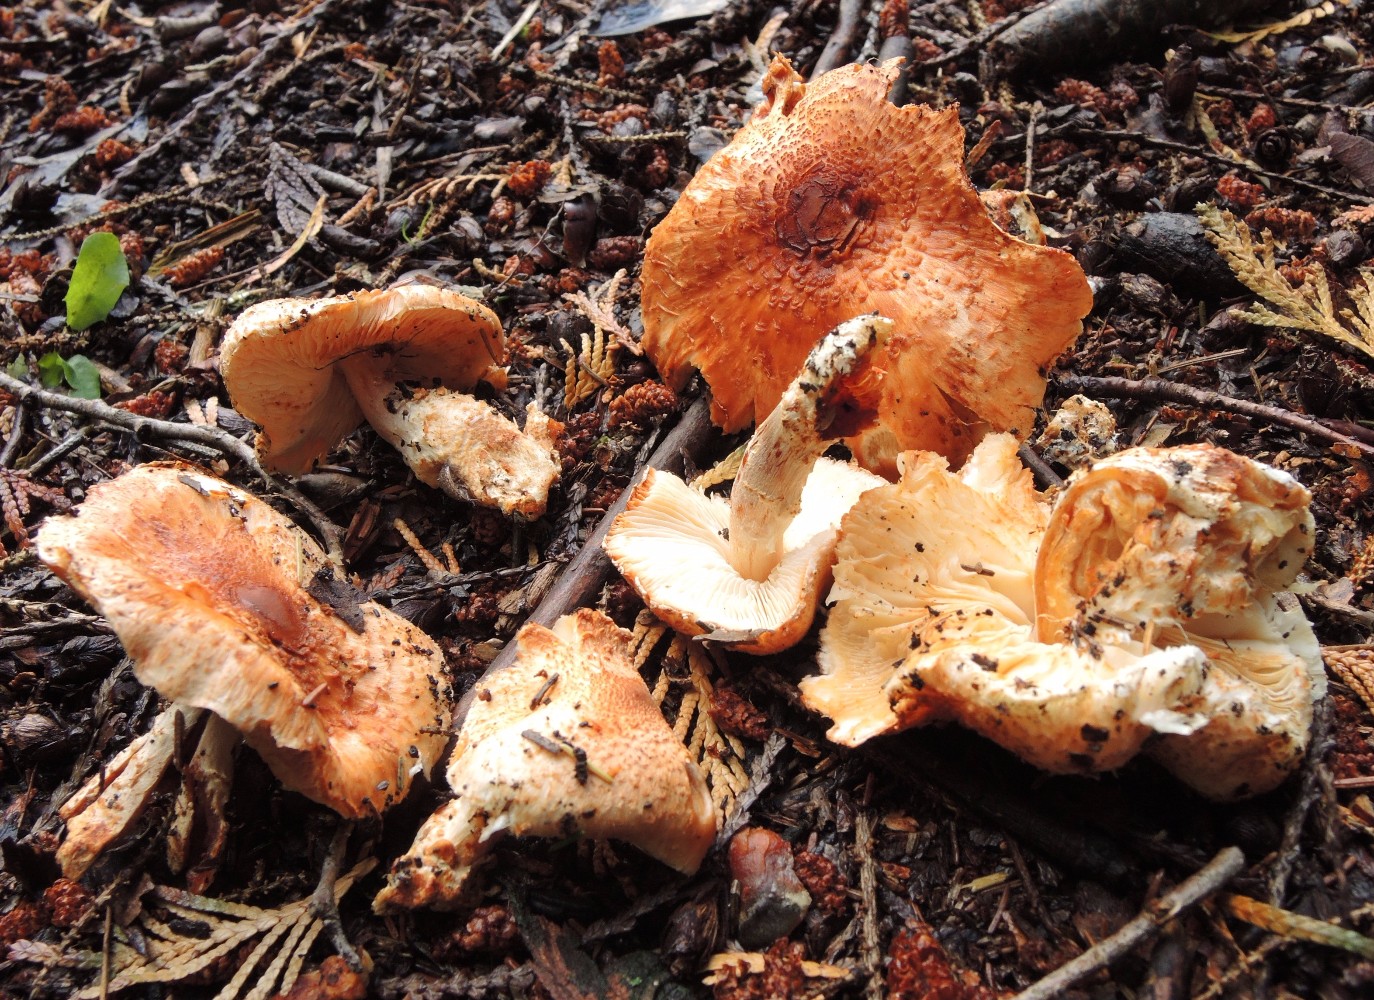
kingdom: Fungi
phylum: Basidiomycota
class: Agaricomycetes
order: Agaricales
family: Agaricaceae
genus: Lepiota
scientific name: Lepiota ochraceofulva
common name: sødtduftende parasolhat
